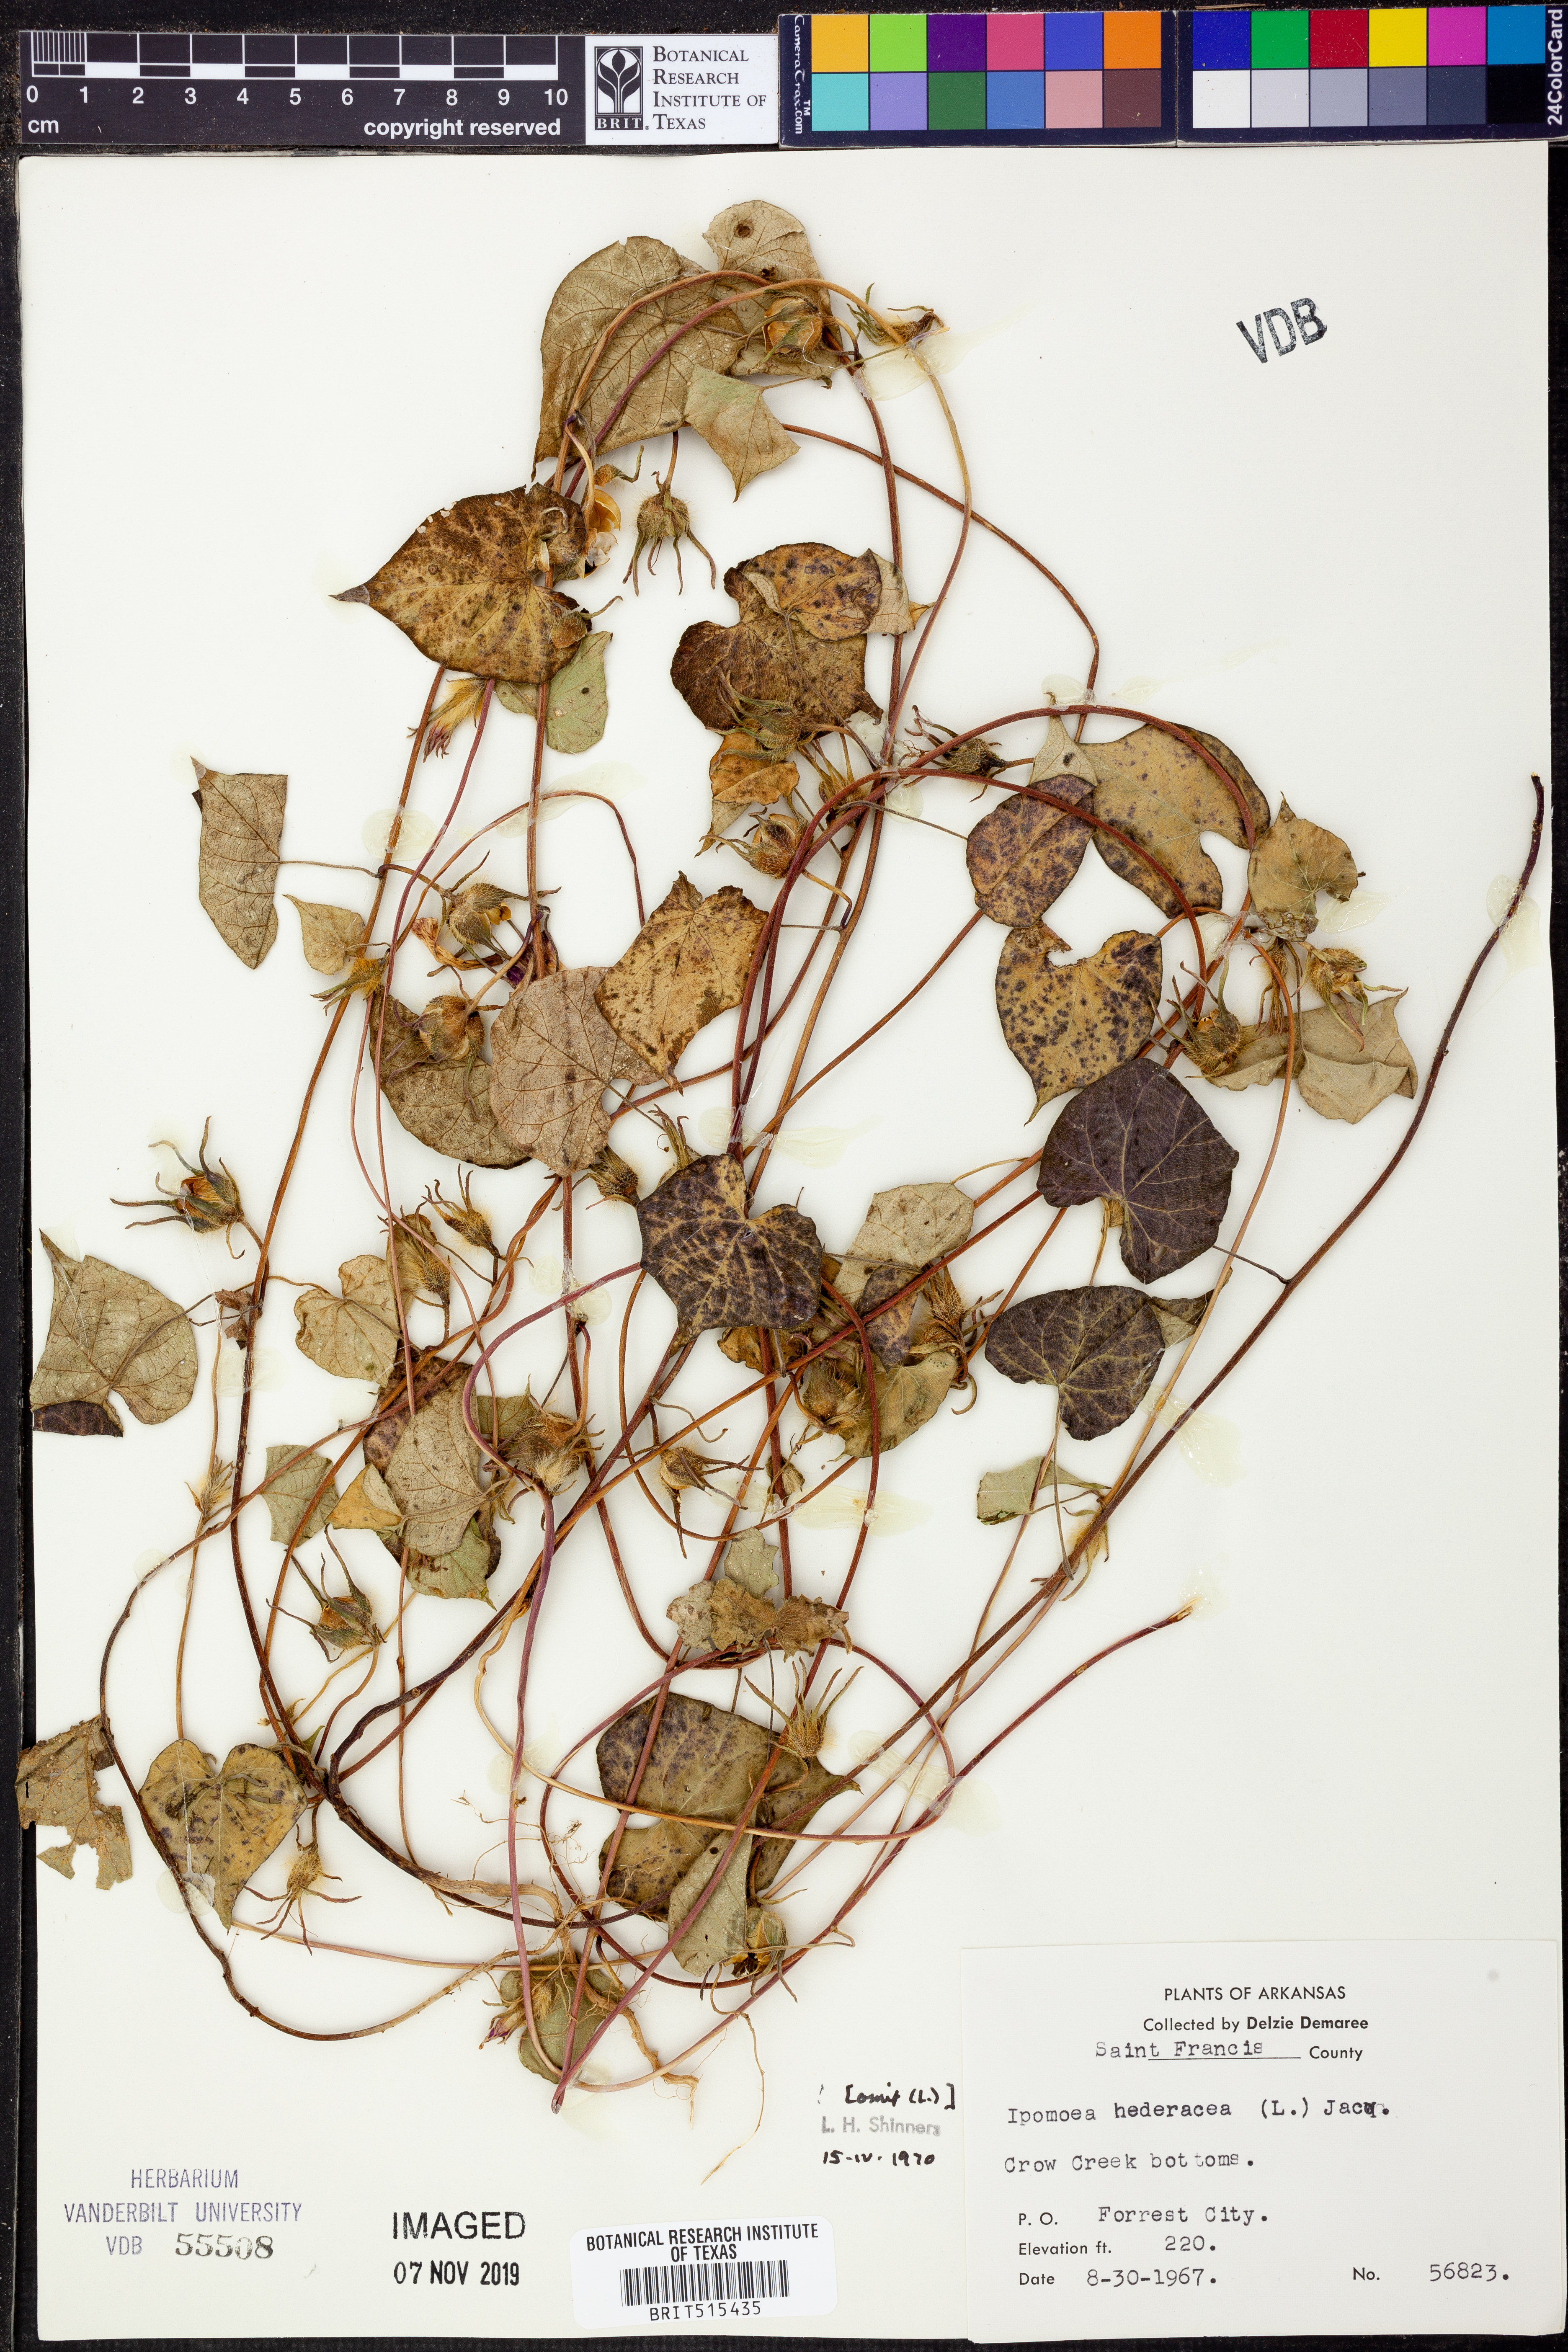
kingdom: Plantae
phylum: Tracheophyta
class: Magnoliopsida
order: Solanales
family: Convolvulaceae
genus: Ipomoea
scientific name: Ipomoea hederacea
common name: Ivy-leaved morning-glory
